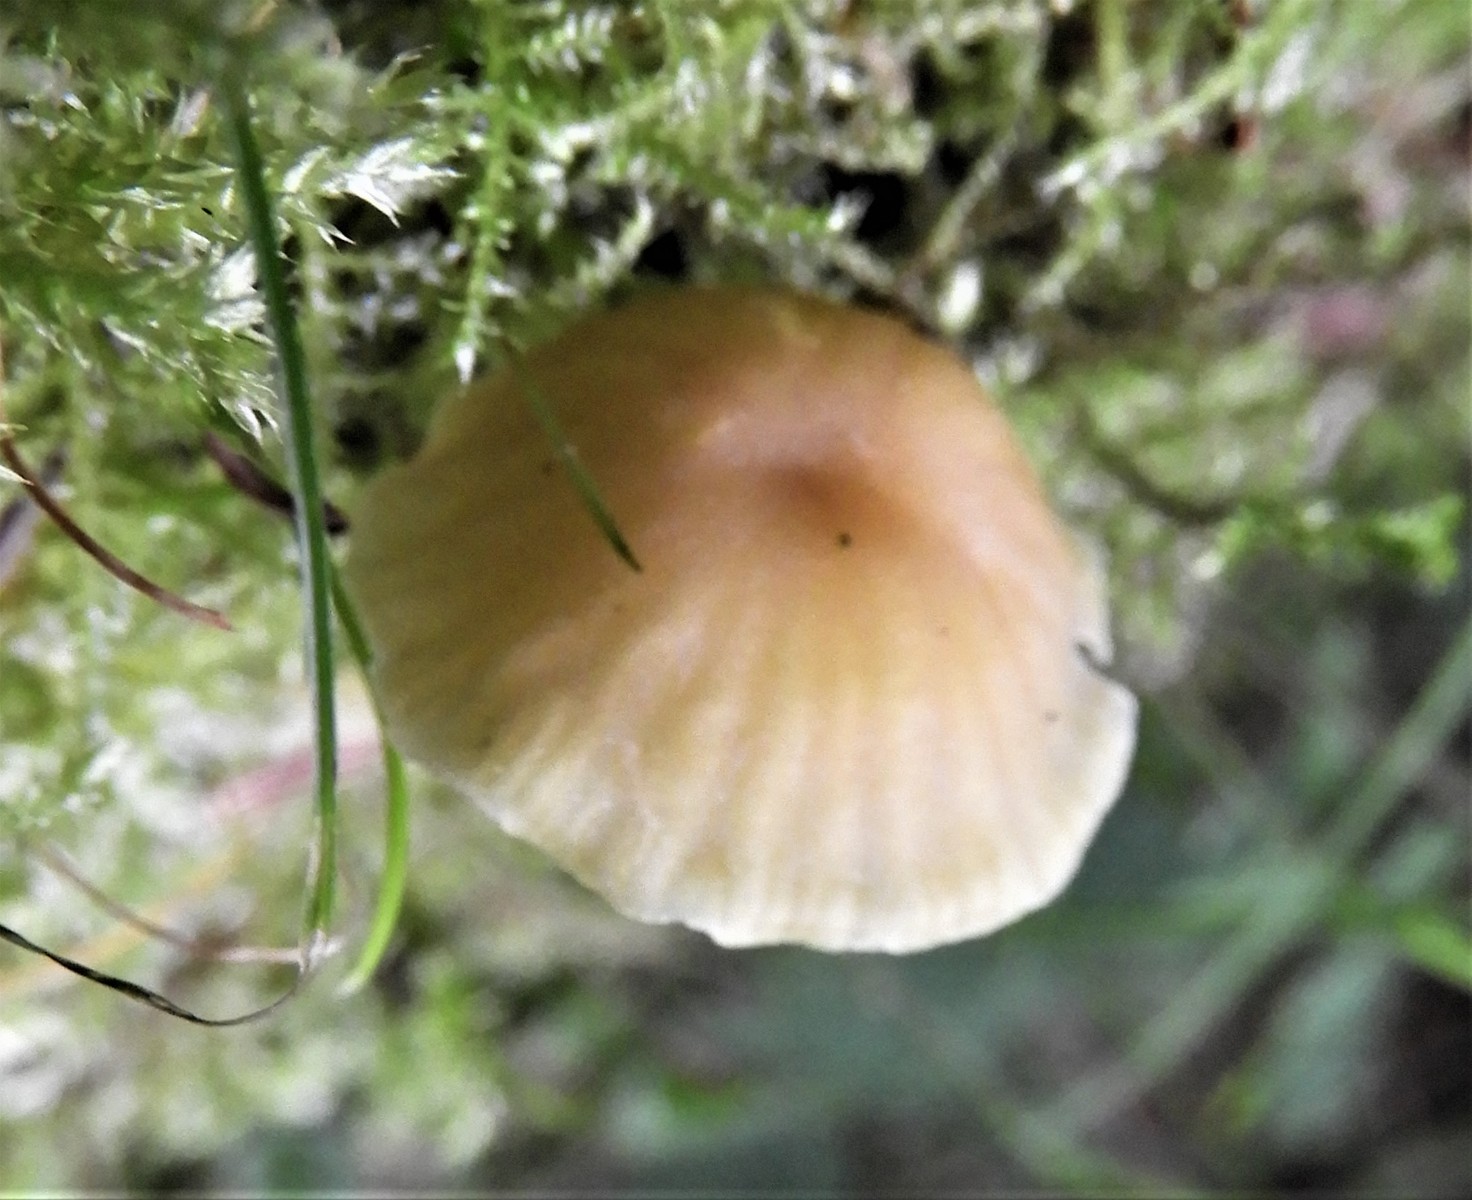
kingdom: Fungi
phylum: Basidiomycota
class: Agaricomycetes
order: Agaricales
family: Hygrophoraceae
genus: Chrysomphalina
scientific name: Chrysomphalina grossula
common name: stød-gyldenblad
